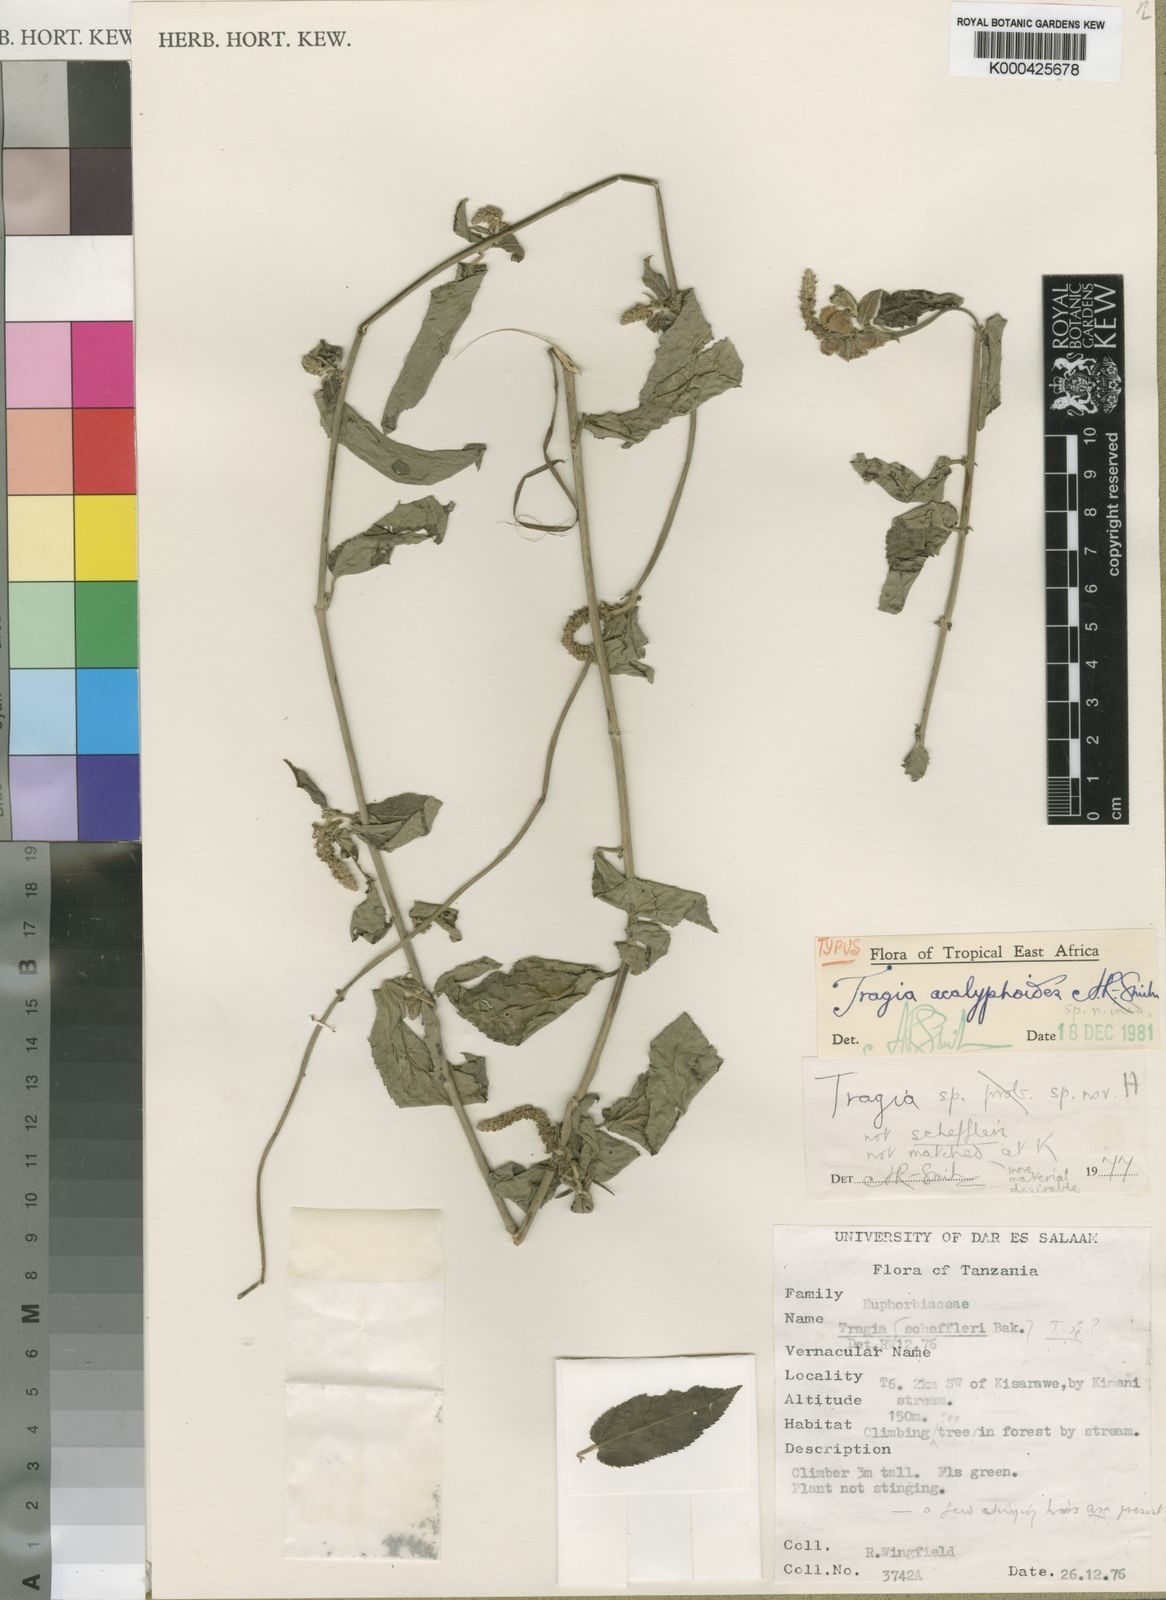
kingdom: Plantae
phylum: Tracheophyta
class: Magnoliopsida
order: Malpighiales
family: Euphorbiaceae
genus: Tragia
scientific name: Tragia acalyphoides
